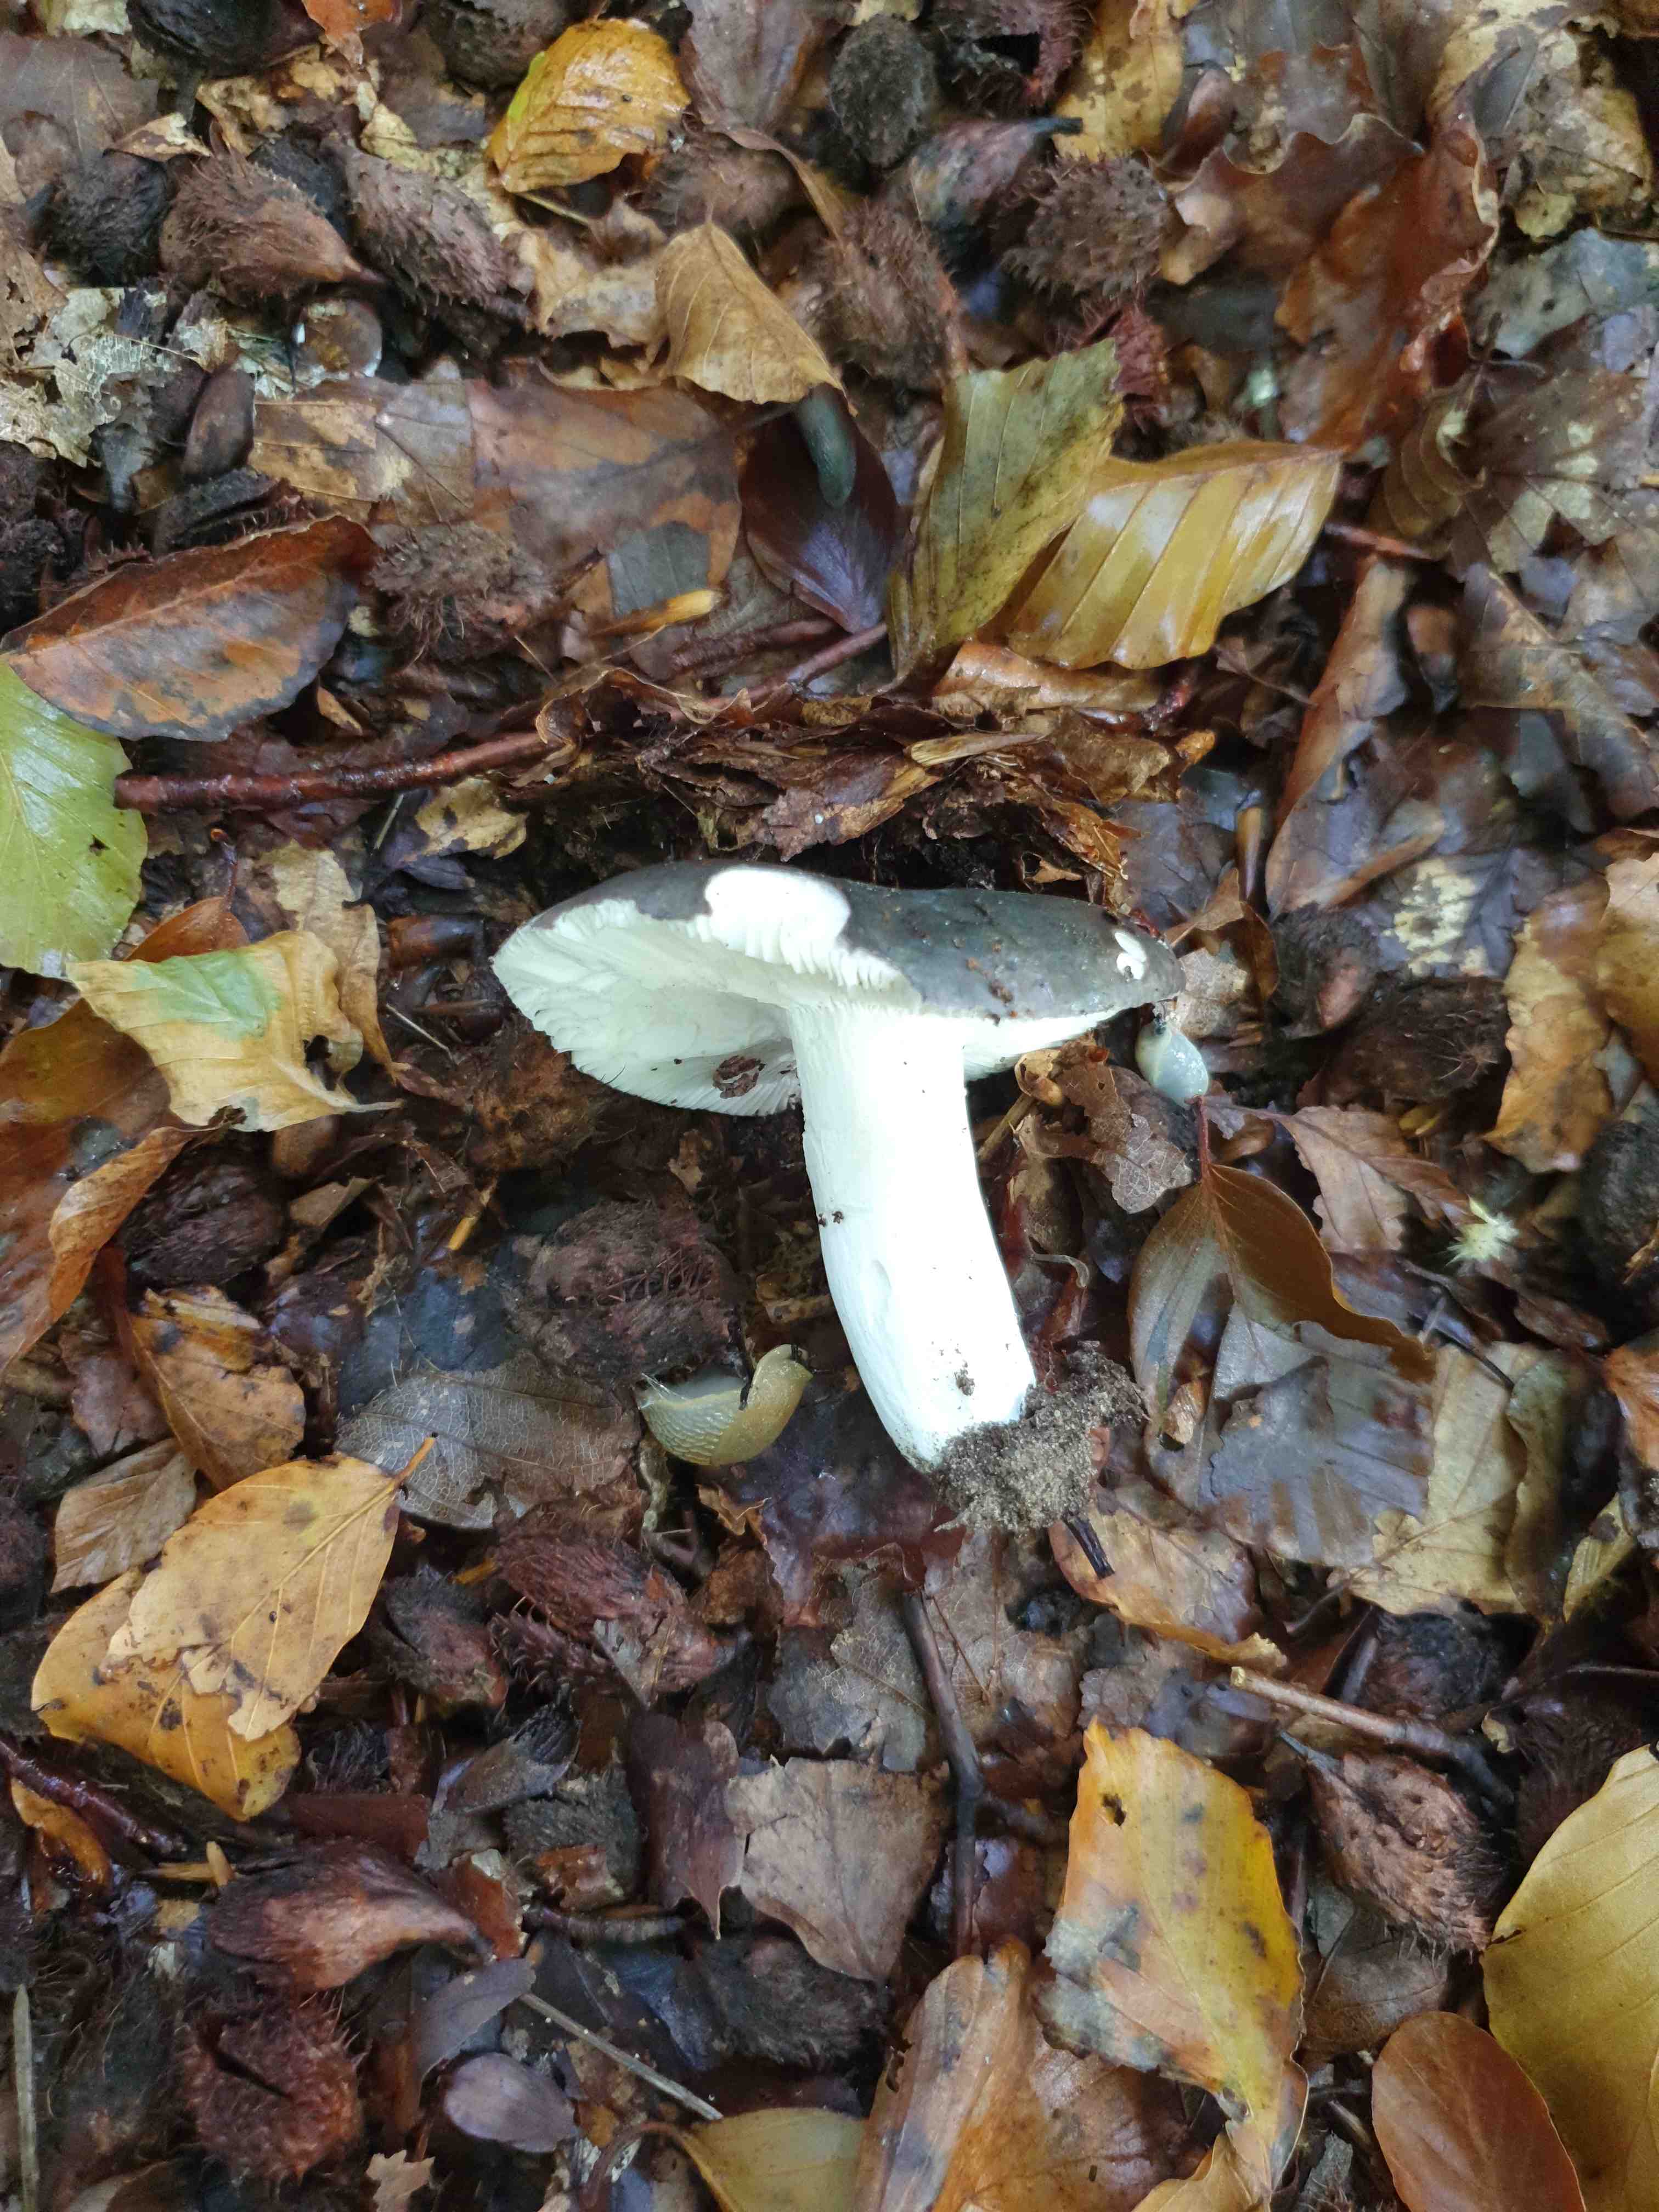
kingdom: Fungi
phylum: Basidiomycota
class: Agaricomycetes
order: Russulales
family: Russulaceae
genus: Russula
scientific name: Russula cyanoxantha
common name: broget skørhat
